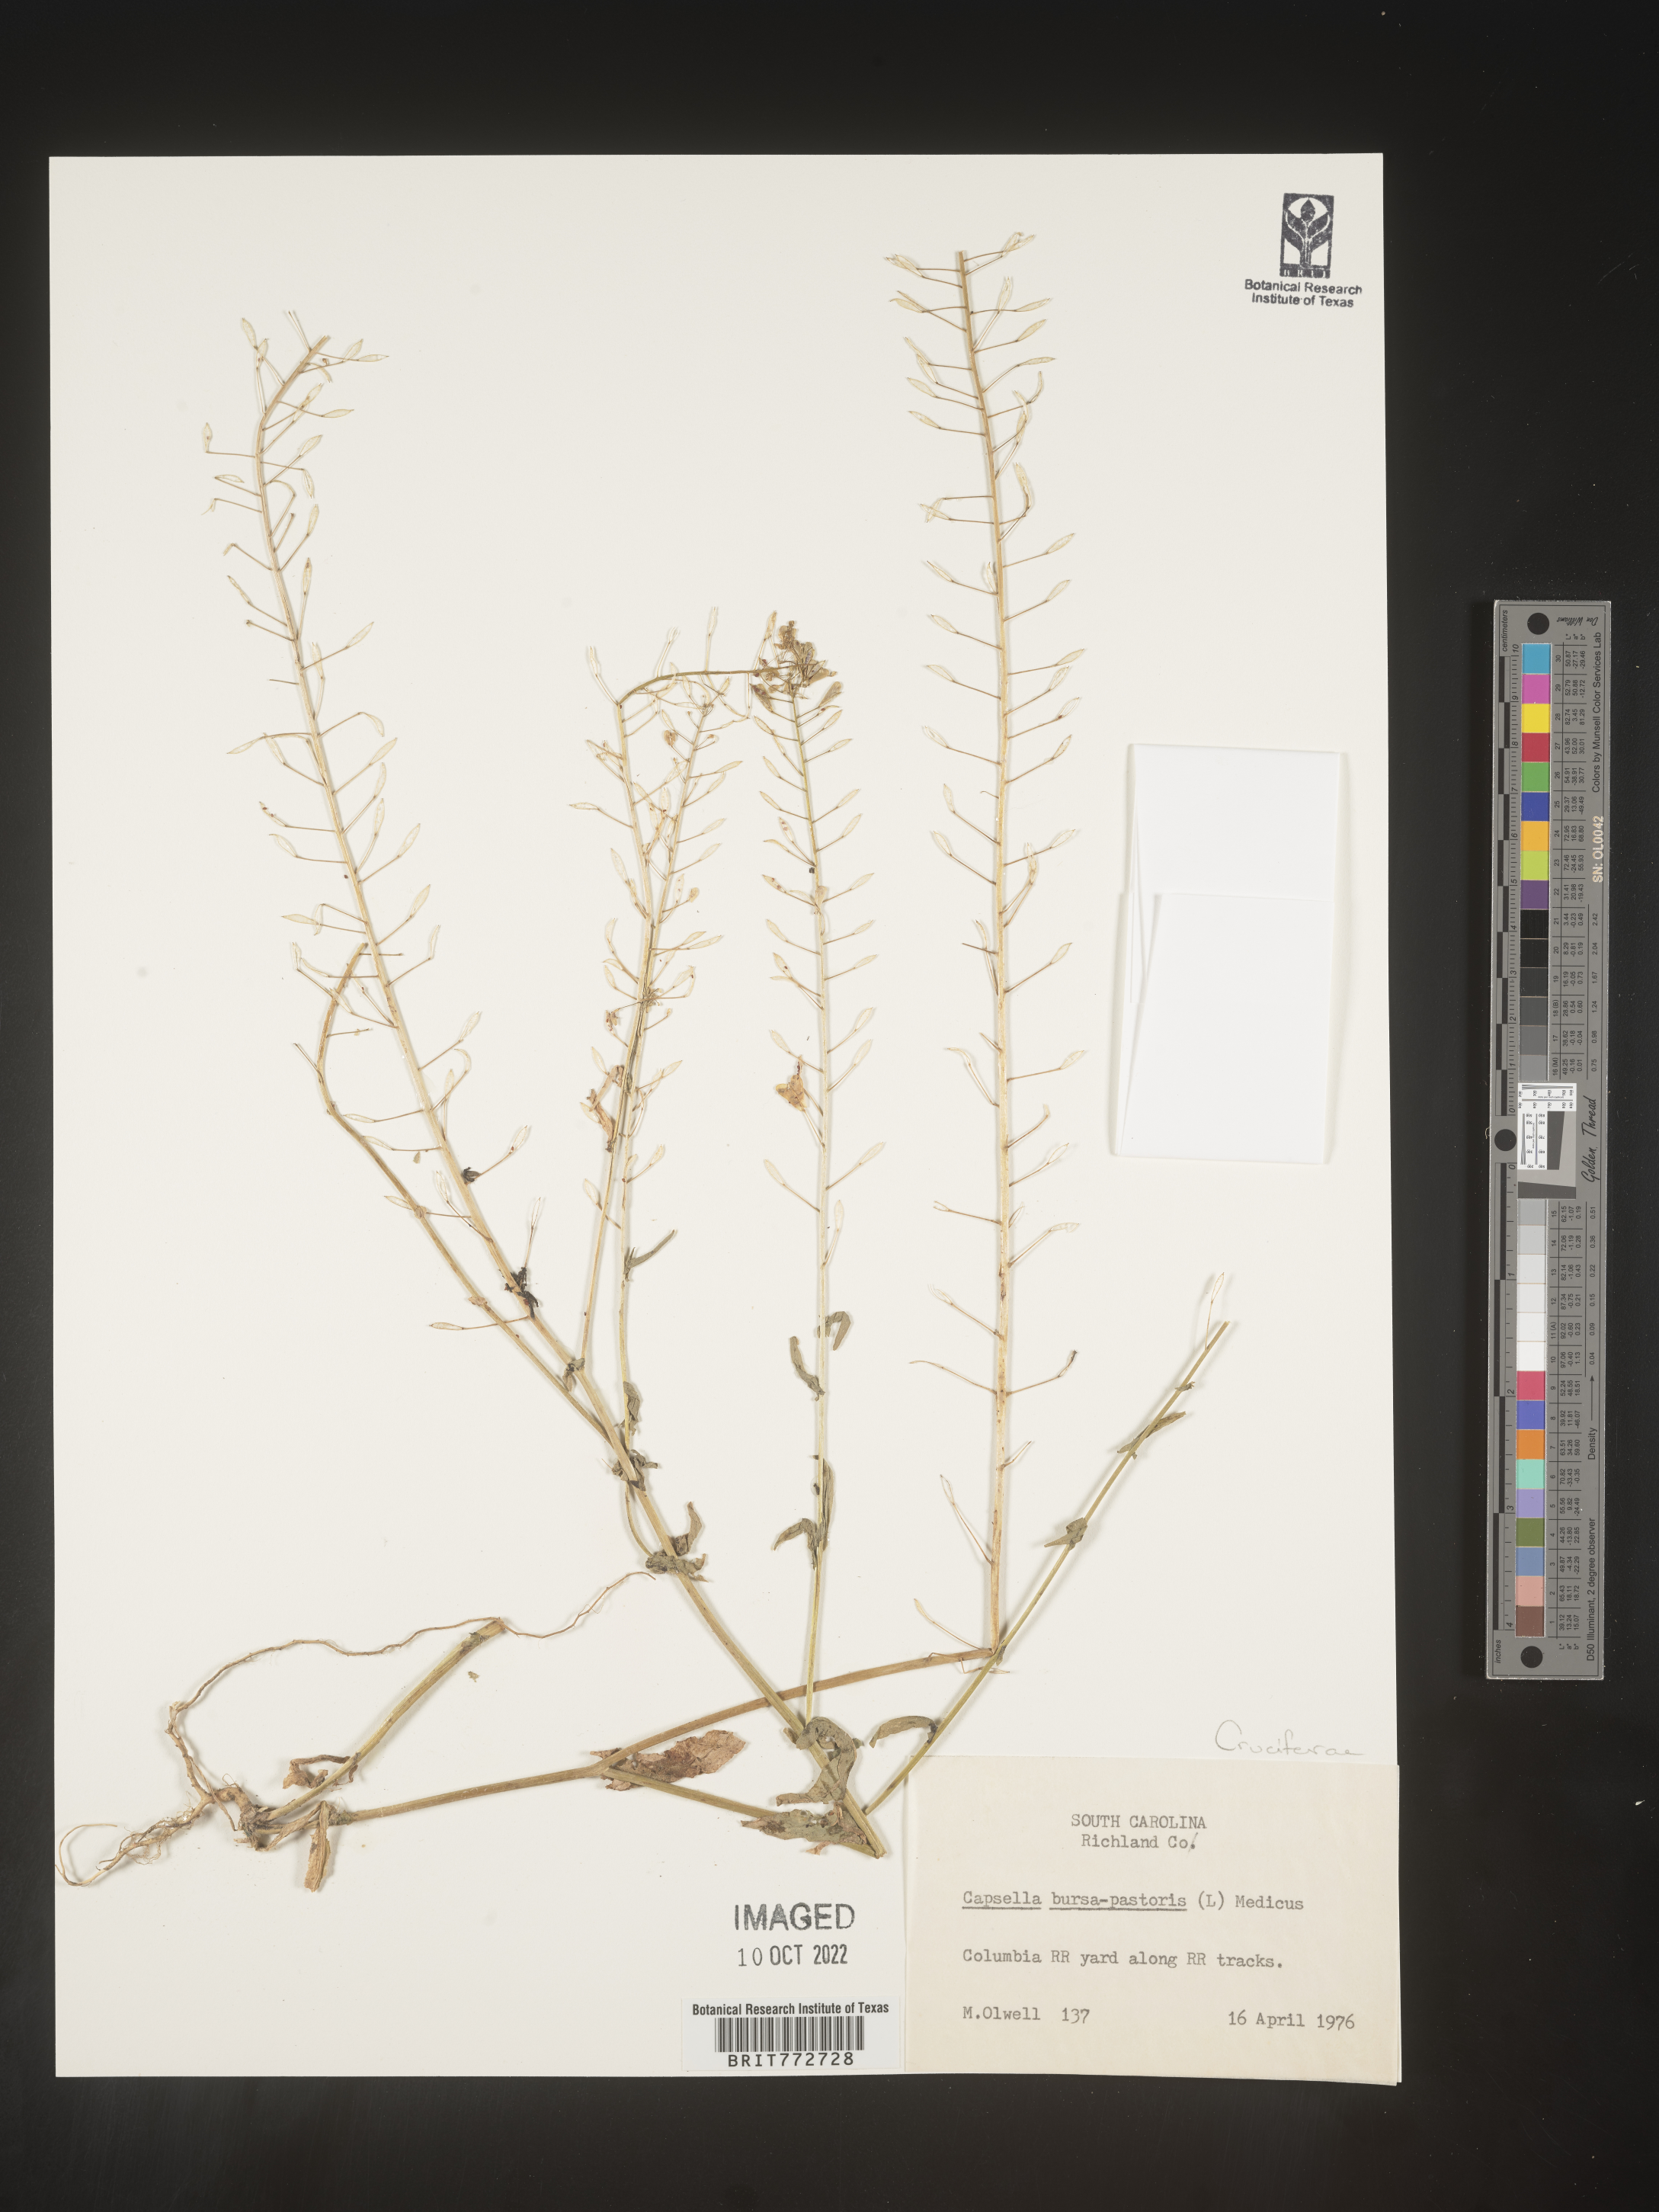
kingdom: Plantae
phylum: Tracheophyta
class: Magnoliopsida
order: Brassicales
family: Brassicaceae
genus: Capsella
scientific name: Capsella bursa-pastoris
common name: Shepherd's purse
